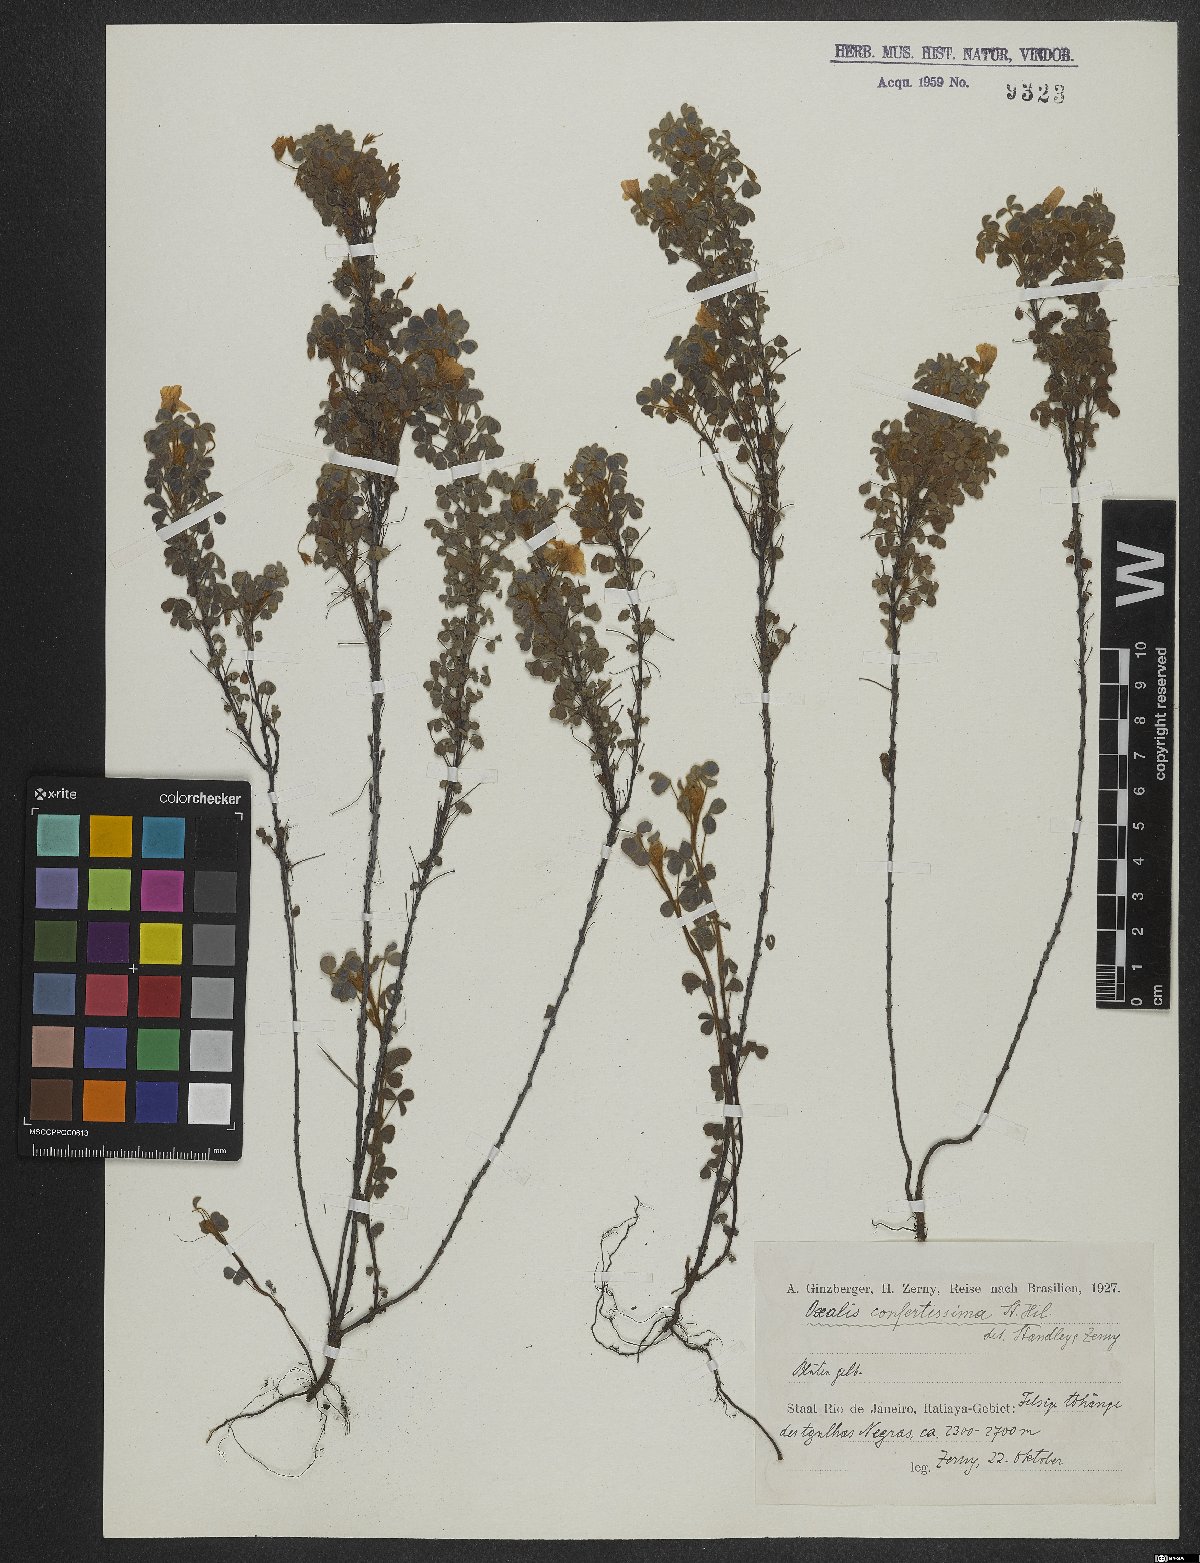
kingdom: Plantae
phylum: Tracheophyta
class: Magnoliopsida
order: Oxalidales
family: Oxalidaceae
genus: Oxalis
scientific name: Oxalis confertissima
